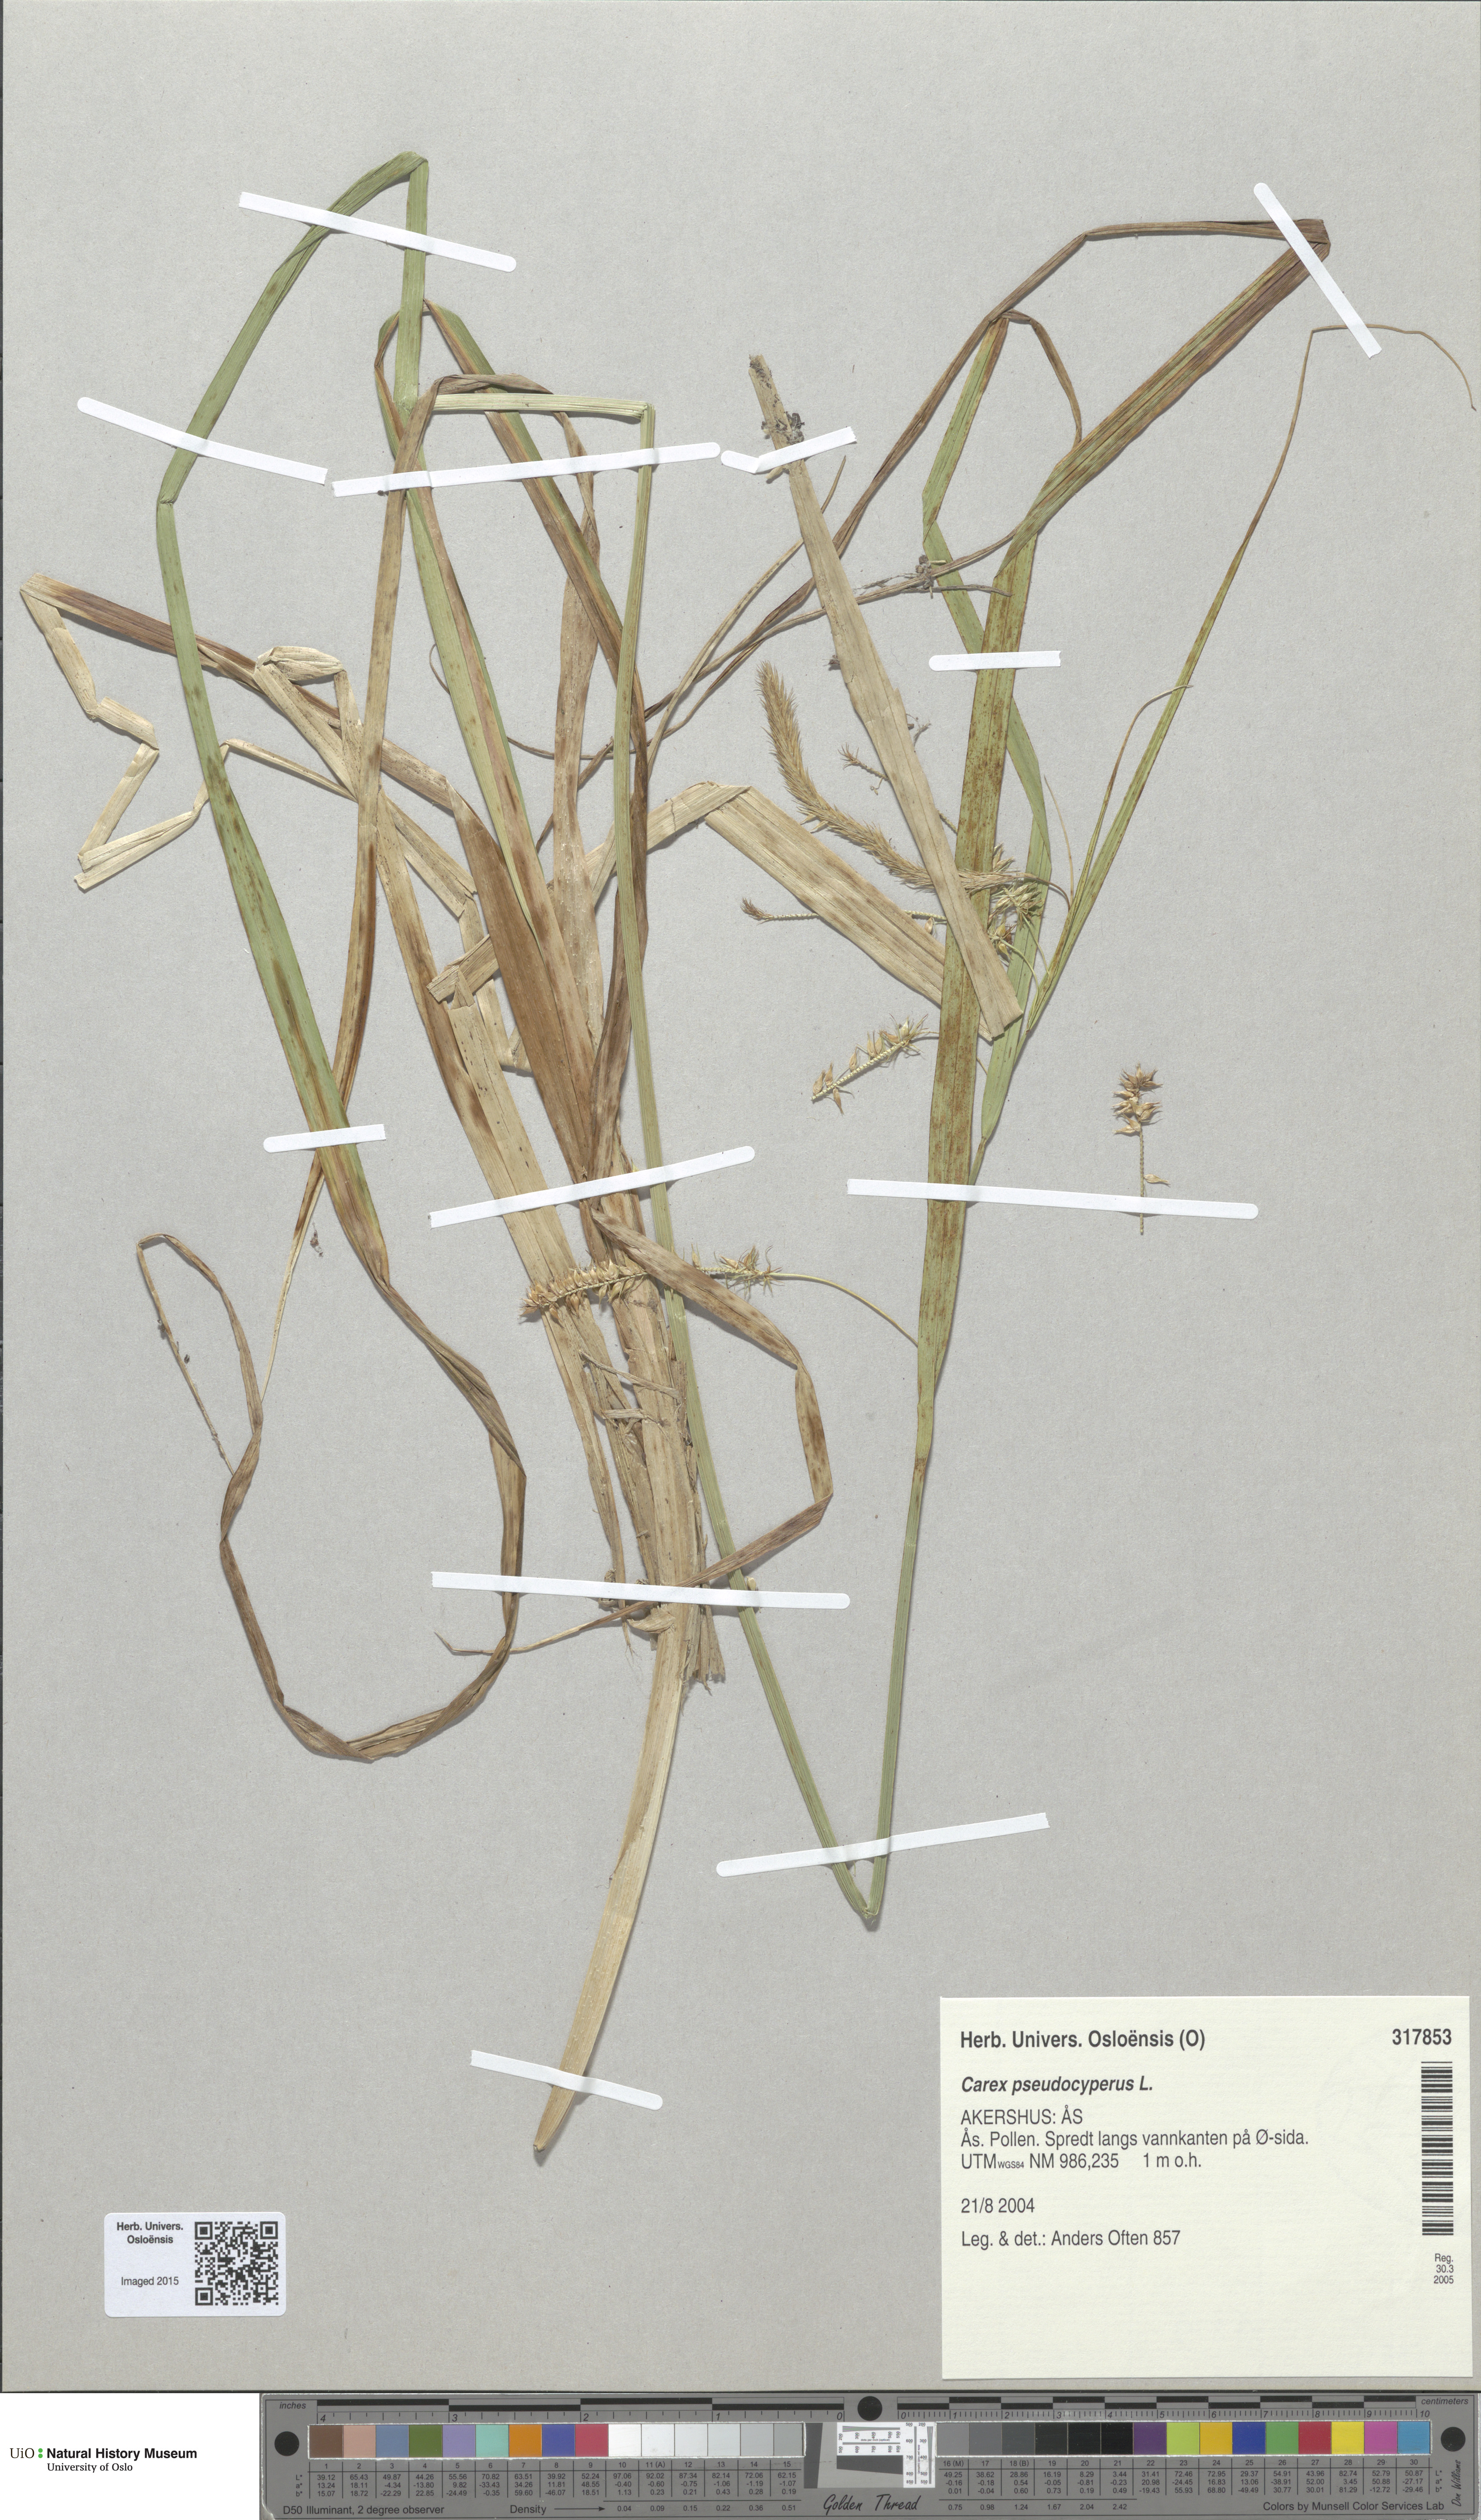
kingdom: Plantae
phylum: Tracheophyta
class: Liliopsida
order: Poales
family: Cyperaceae
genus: Carex
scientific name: Carex pseudocyperus
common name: Cyperus sedge
